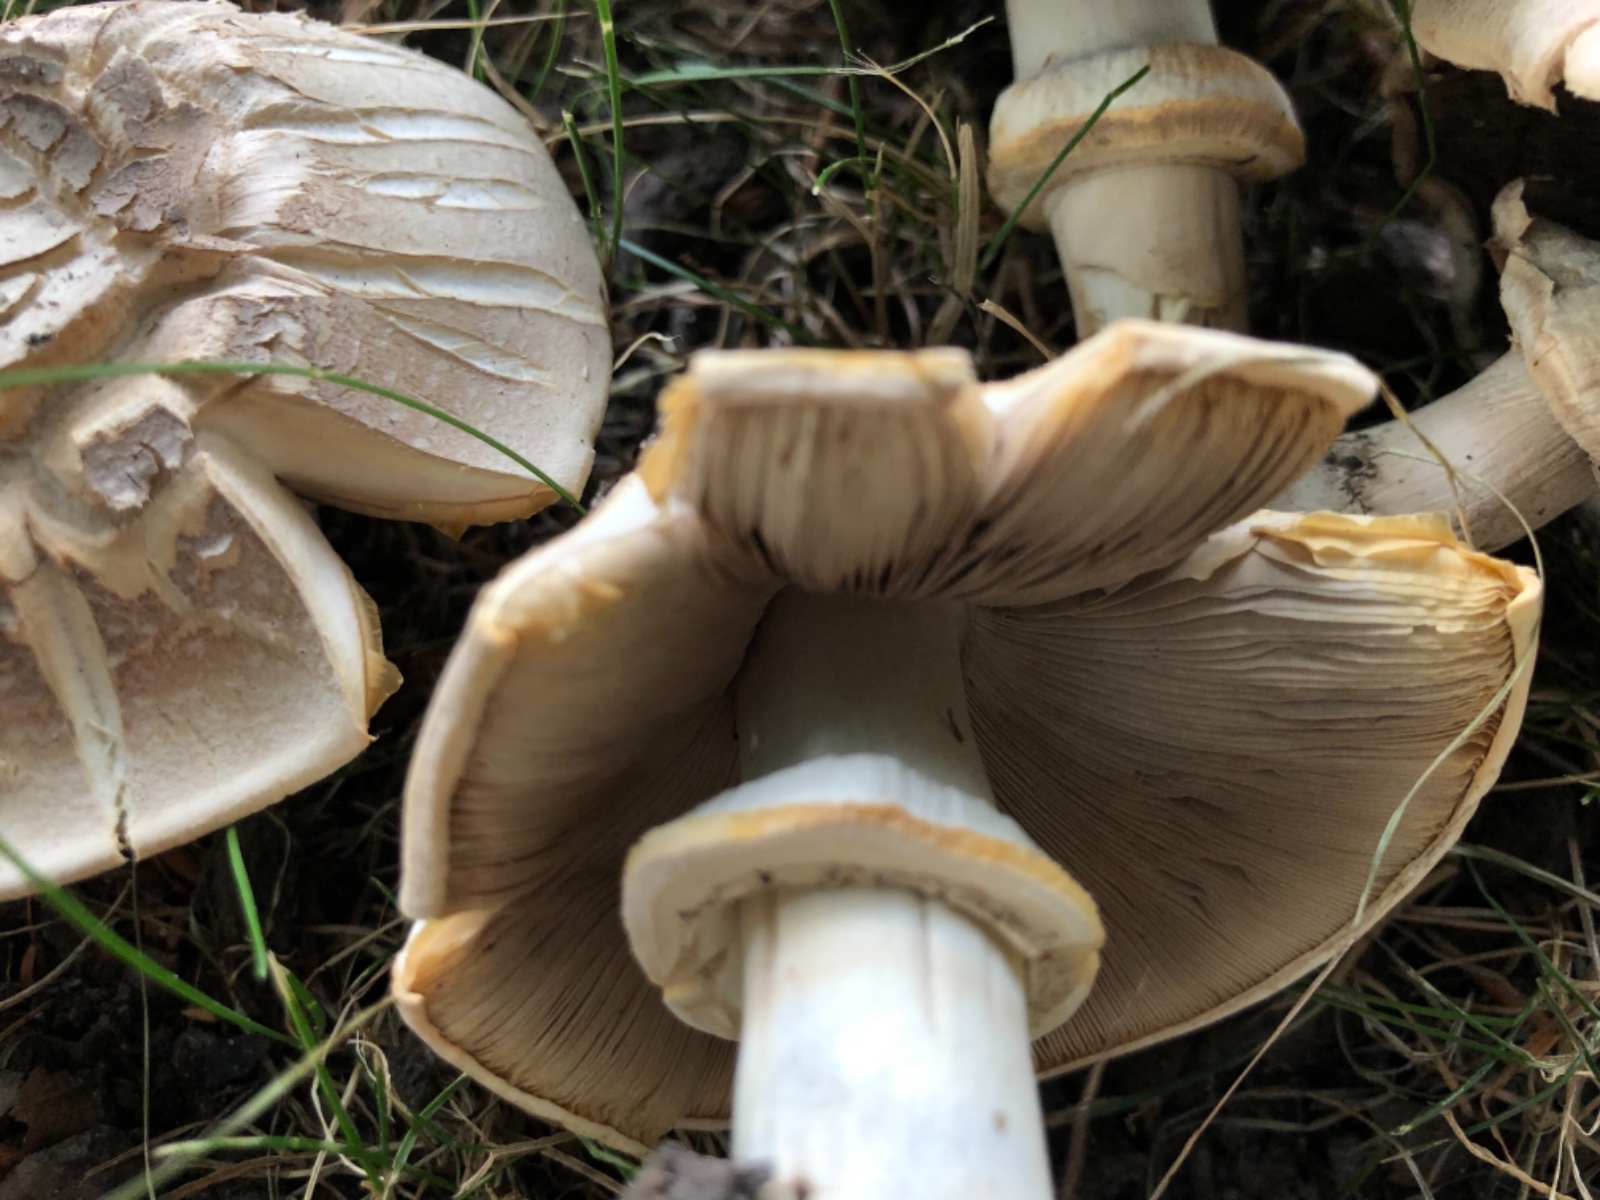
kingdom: Fungi
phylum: Basidiomycota
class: Agaricomycetes
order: Agaricales
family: Agaricaceae
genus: Agaricus
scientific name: Agaricus xanthodermus
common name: karbol-champignon
